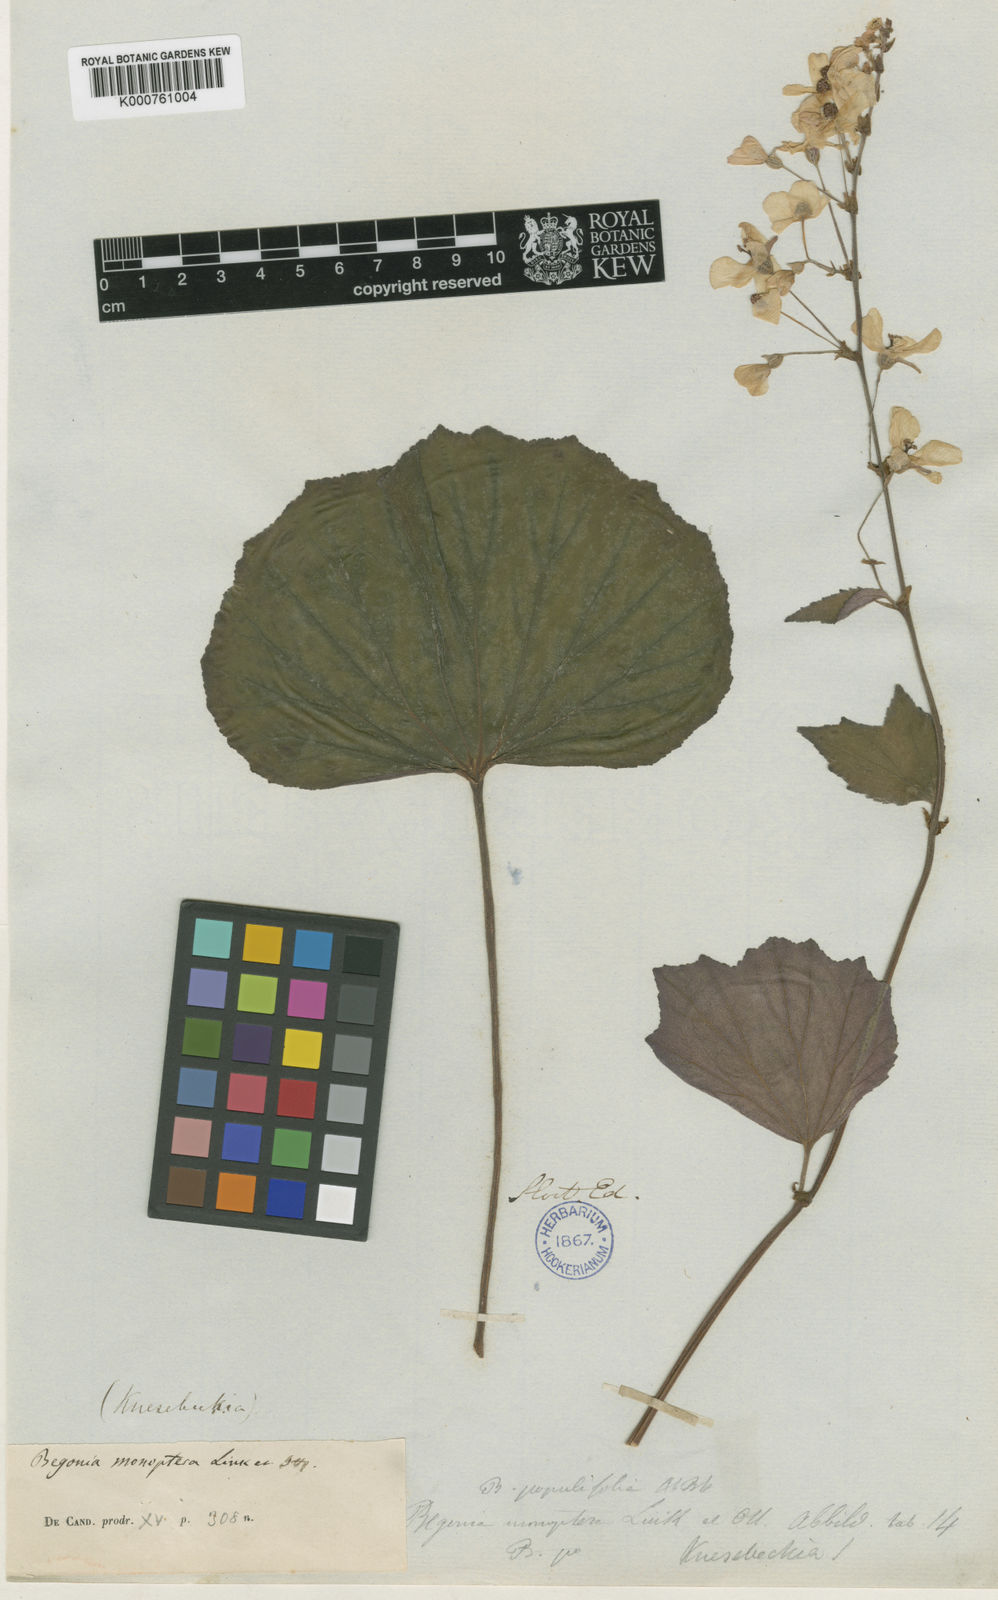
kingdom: Plantae
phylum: Tracheophyta
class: Magnoliopsida
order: Cucurbitales
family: Begoniaceae
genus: Begonia
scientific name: Begonia balmisiana
